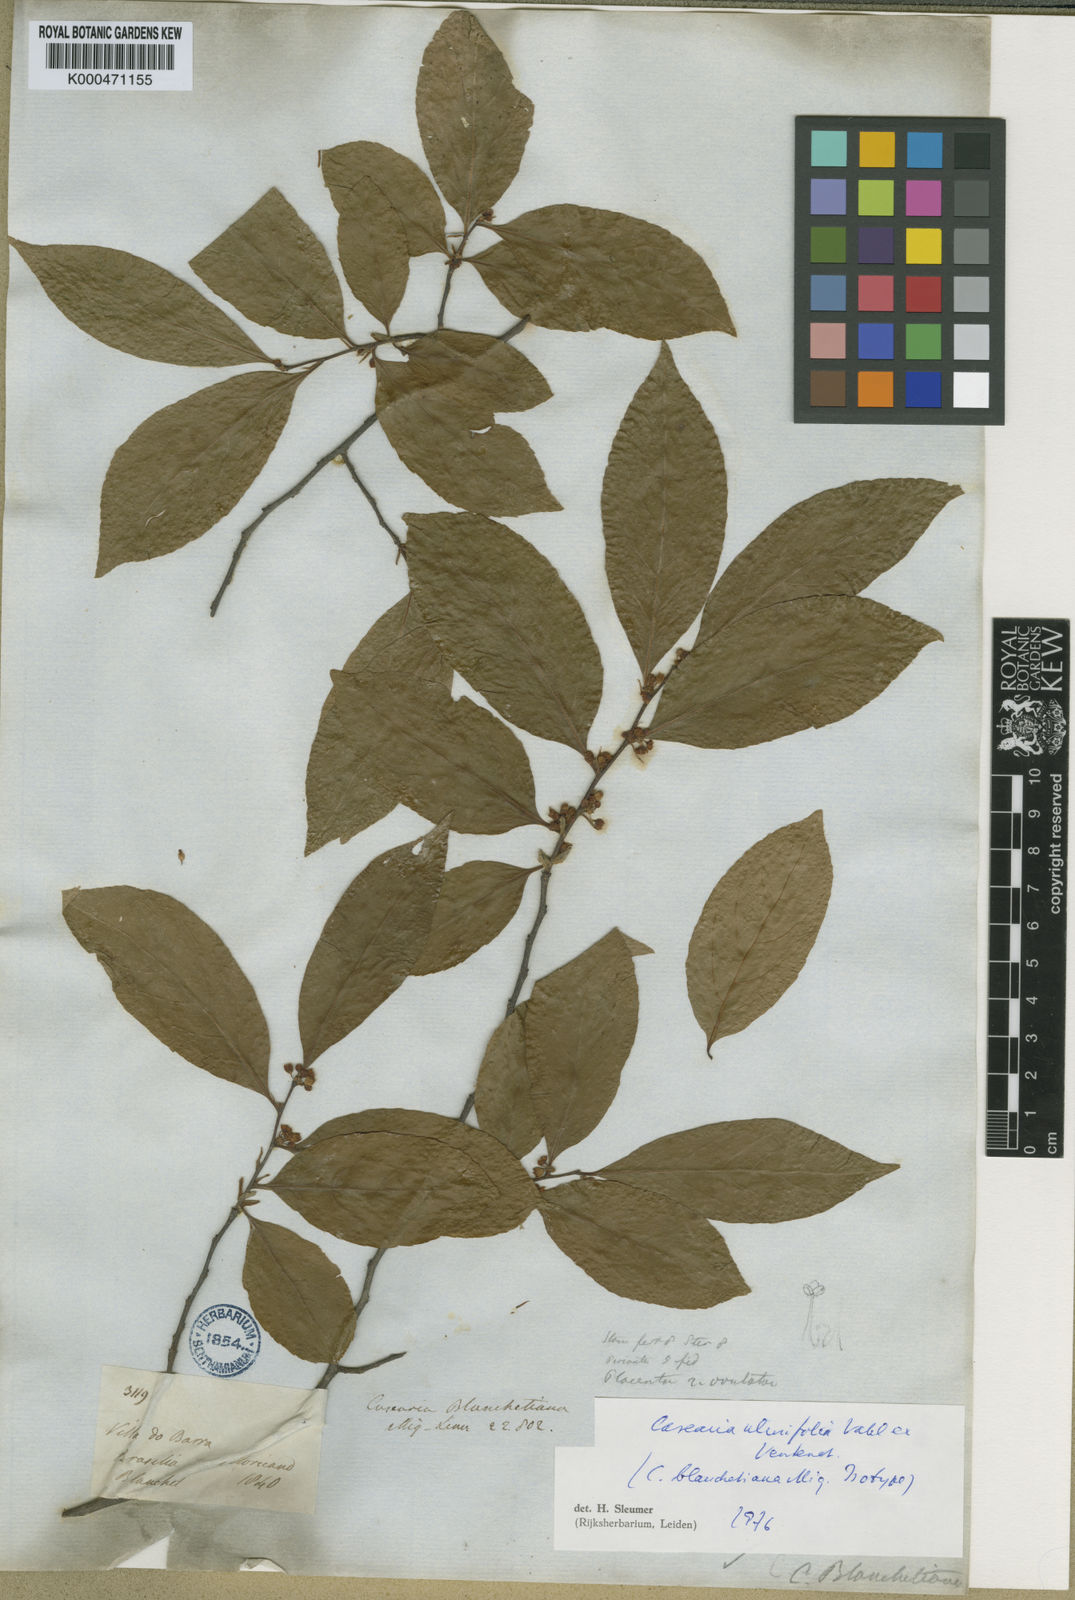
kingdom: Plantae
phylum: Tracheophyta
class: Magnoliopsida
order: Malpighiales
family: Salicaceae
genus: Casearia
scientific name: Casearia ulmifolia
